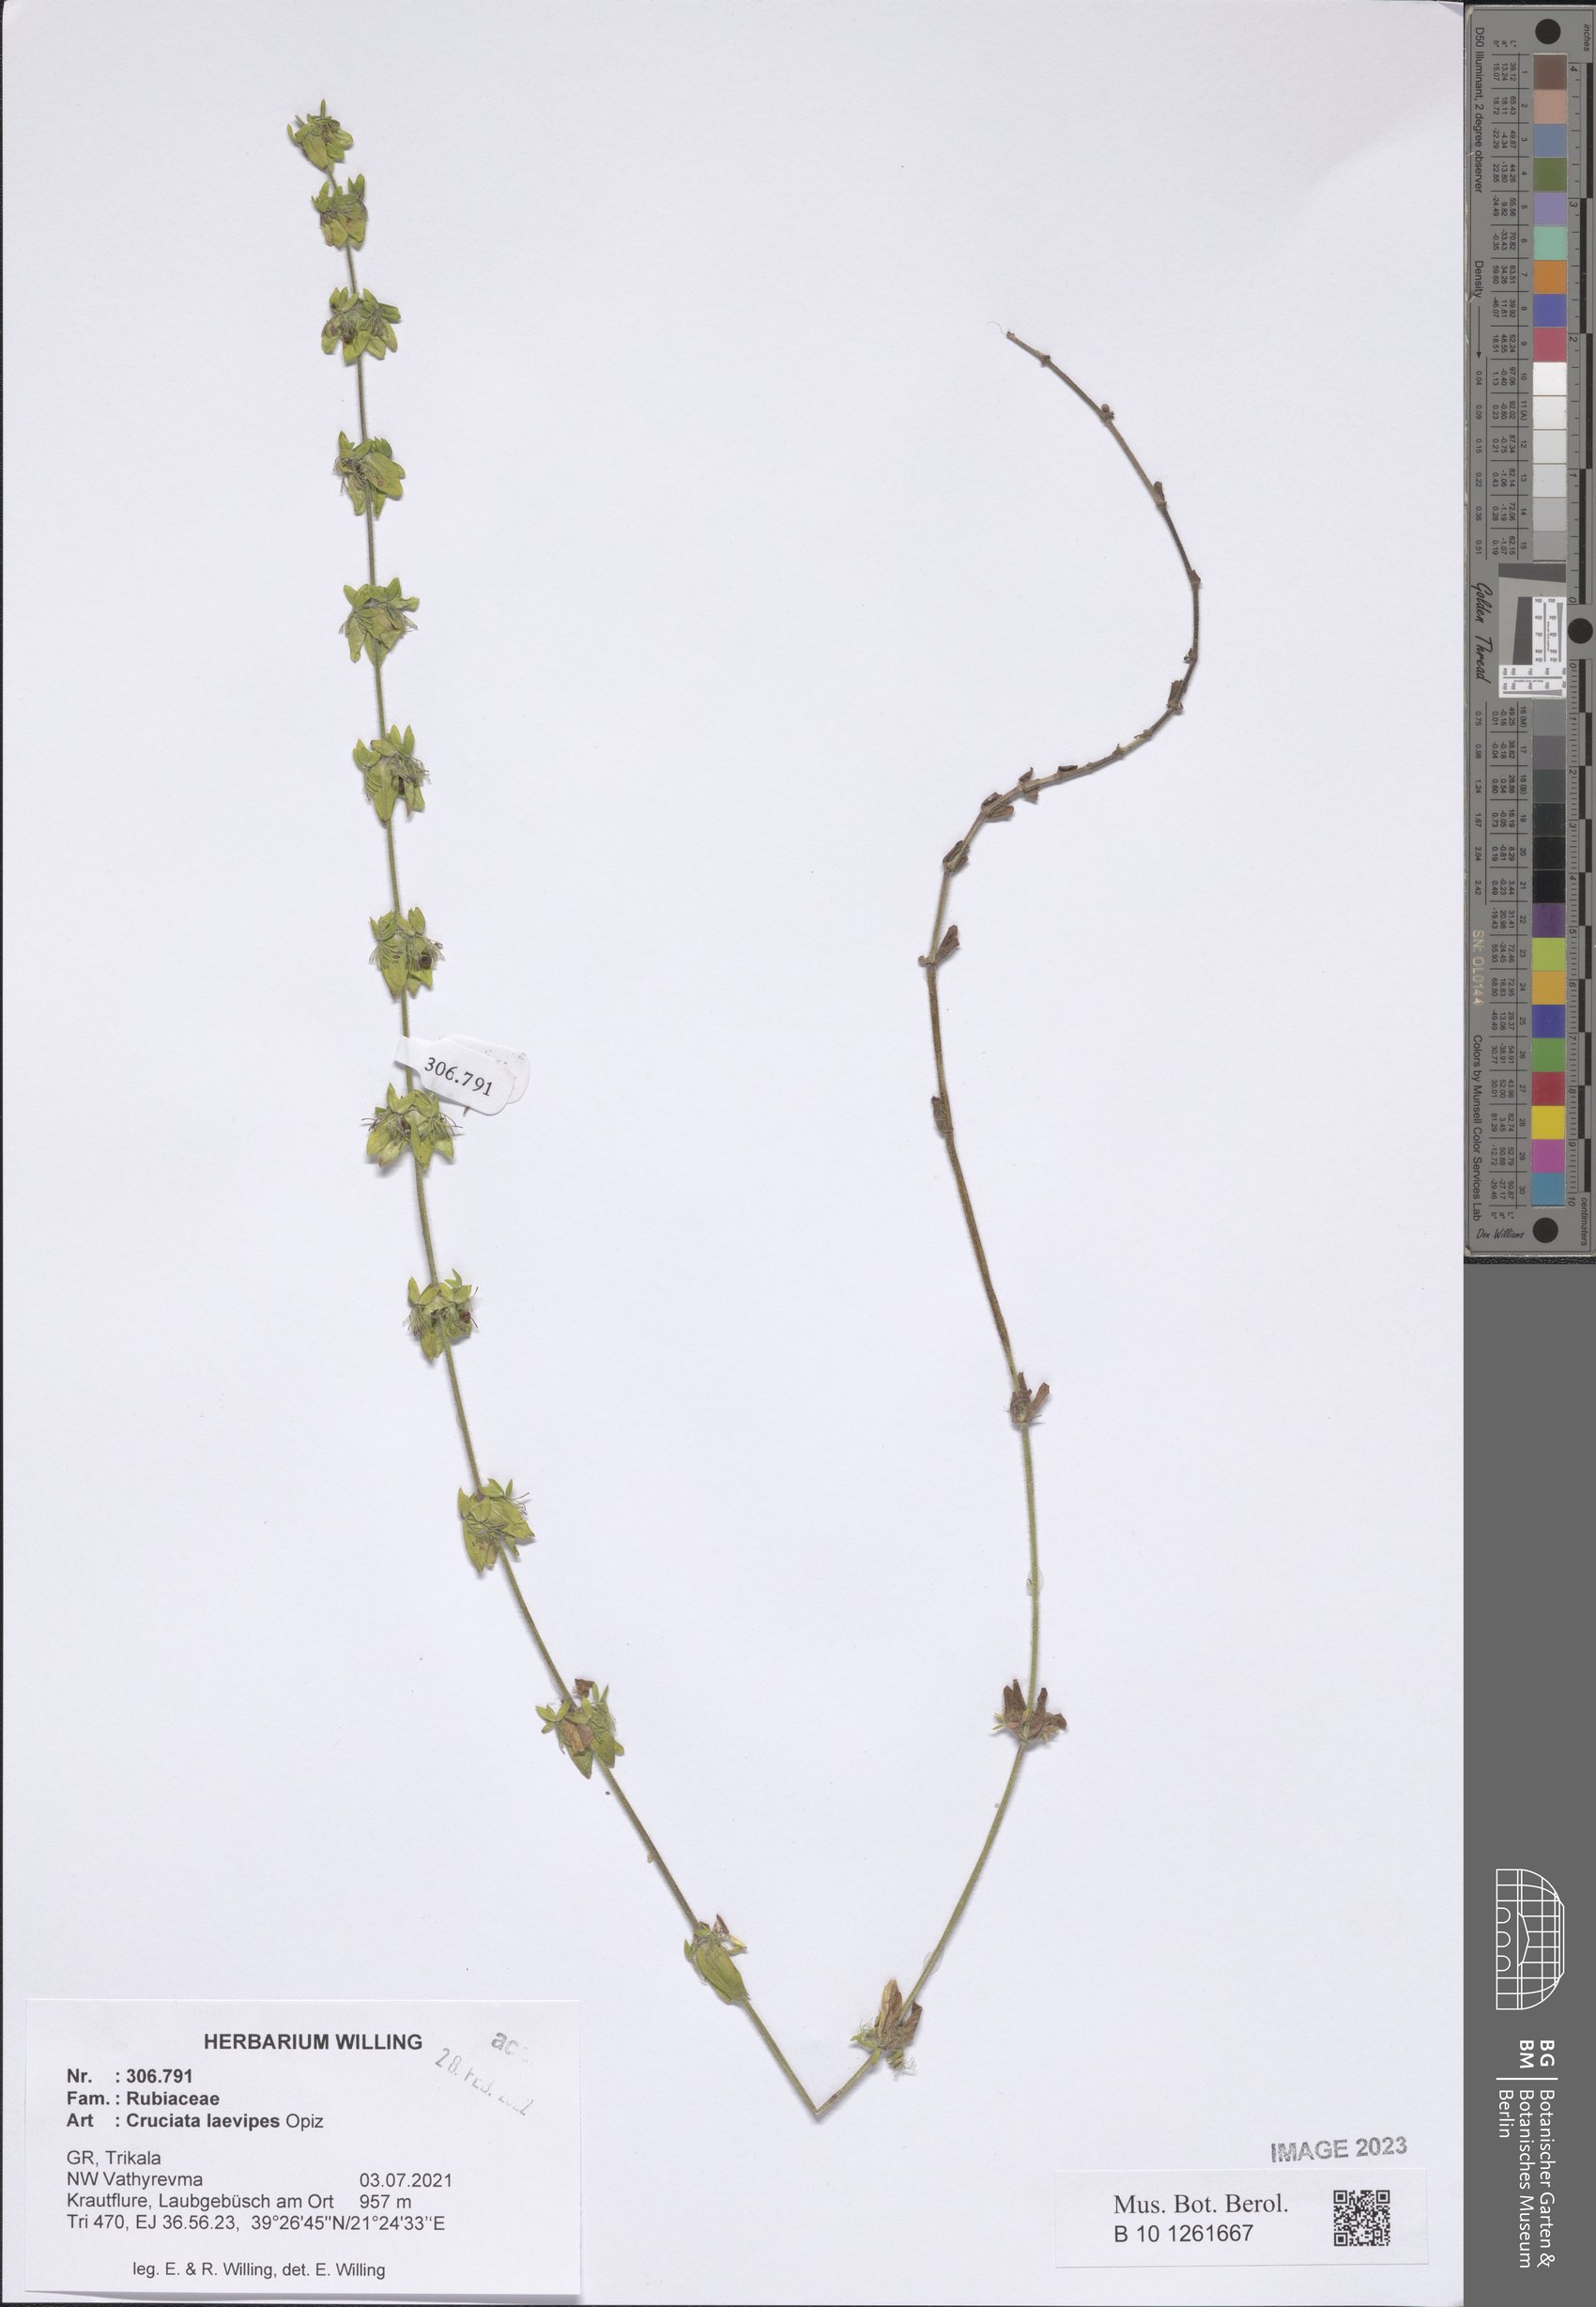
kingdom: Plantae
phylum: Tracheophyta
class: Magnoliopsida
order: Gentianales
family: Rubiaceae
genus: Cruciata
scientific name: Cruciata laevipes
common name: Crosswort
